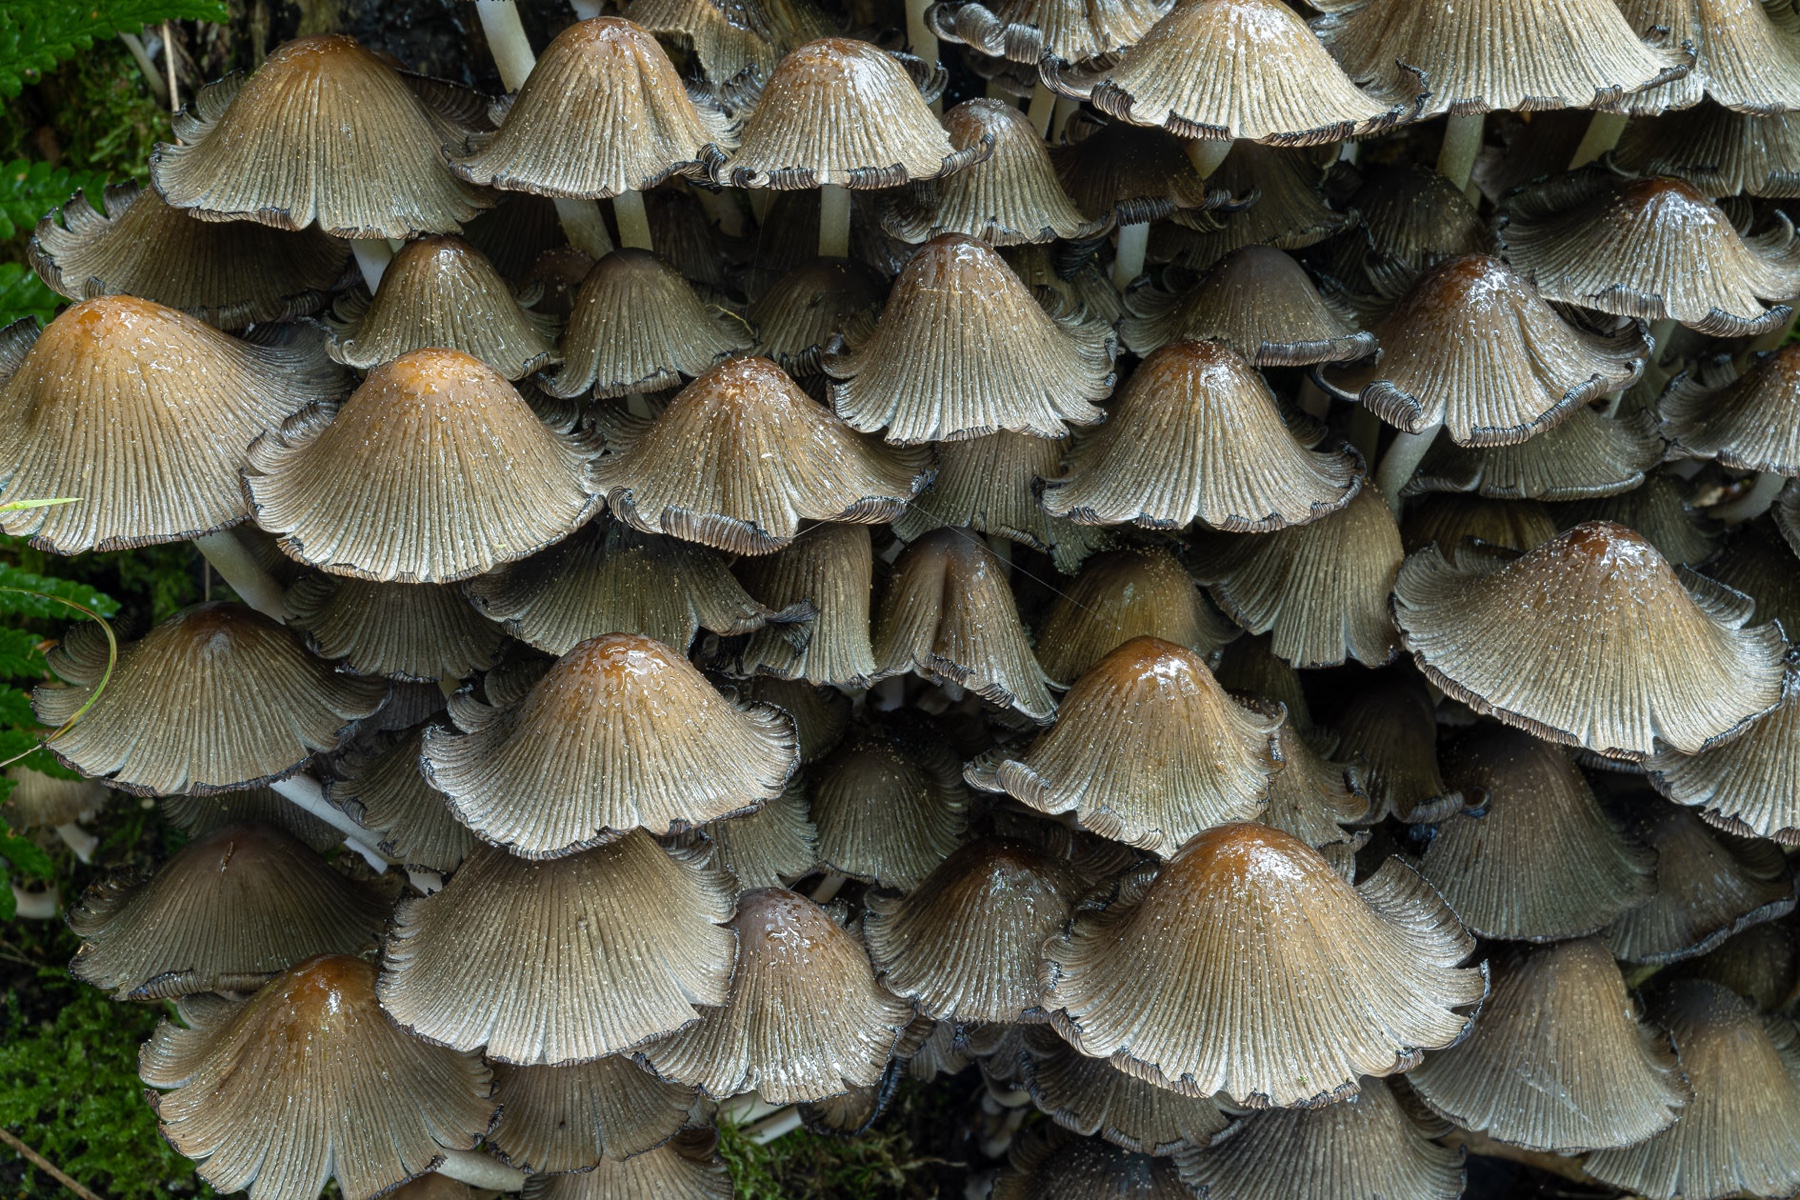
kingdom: Fungi
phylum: Basidiomycota
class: Agaricomycetes
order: Agaricales
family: Psathyrellaceae
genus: Coprinellus
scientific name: Coprinellus micaceus
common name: glimmer-blækhat
